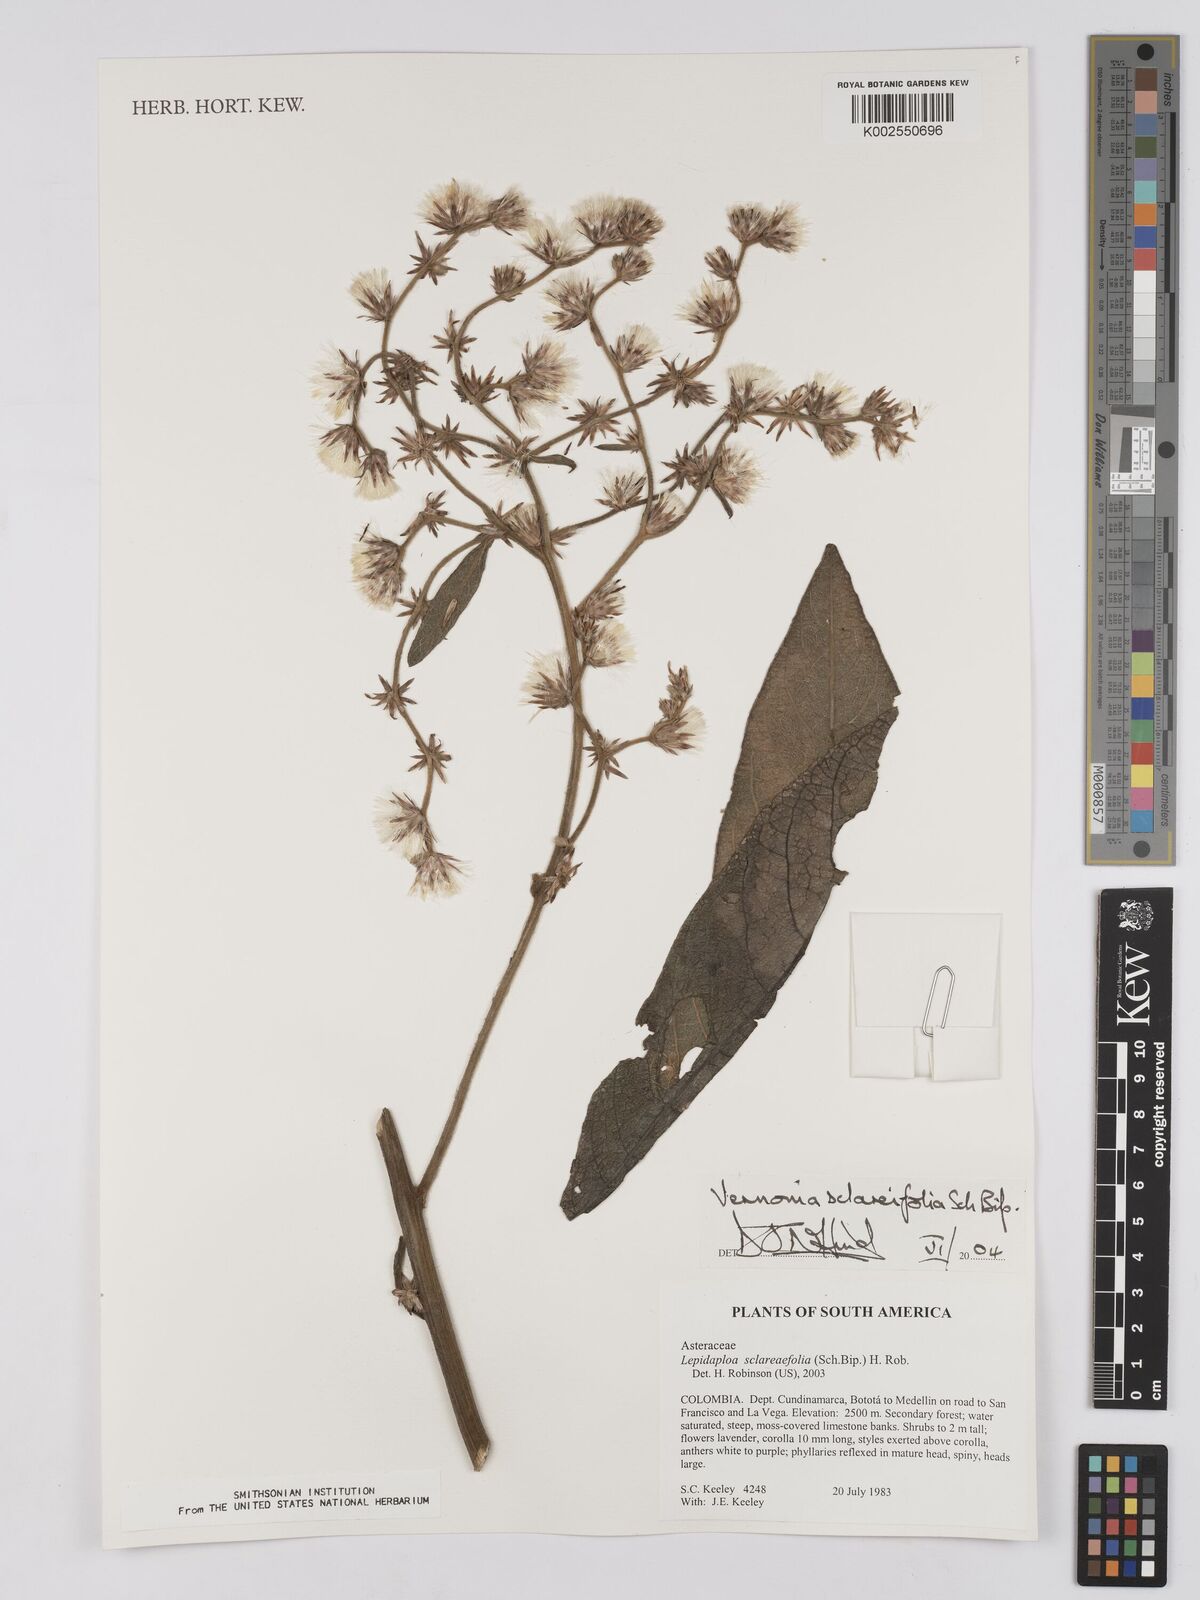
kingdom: Plantae
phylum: Tracheophyta
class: Magnoliopsida
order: Asterales
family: Asteraceae
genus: Lepidaploa
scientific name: Lepidaploa sclareifolia
